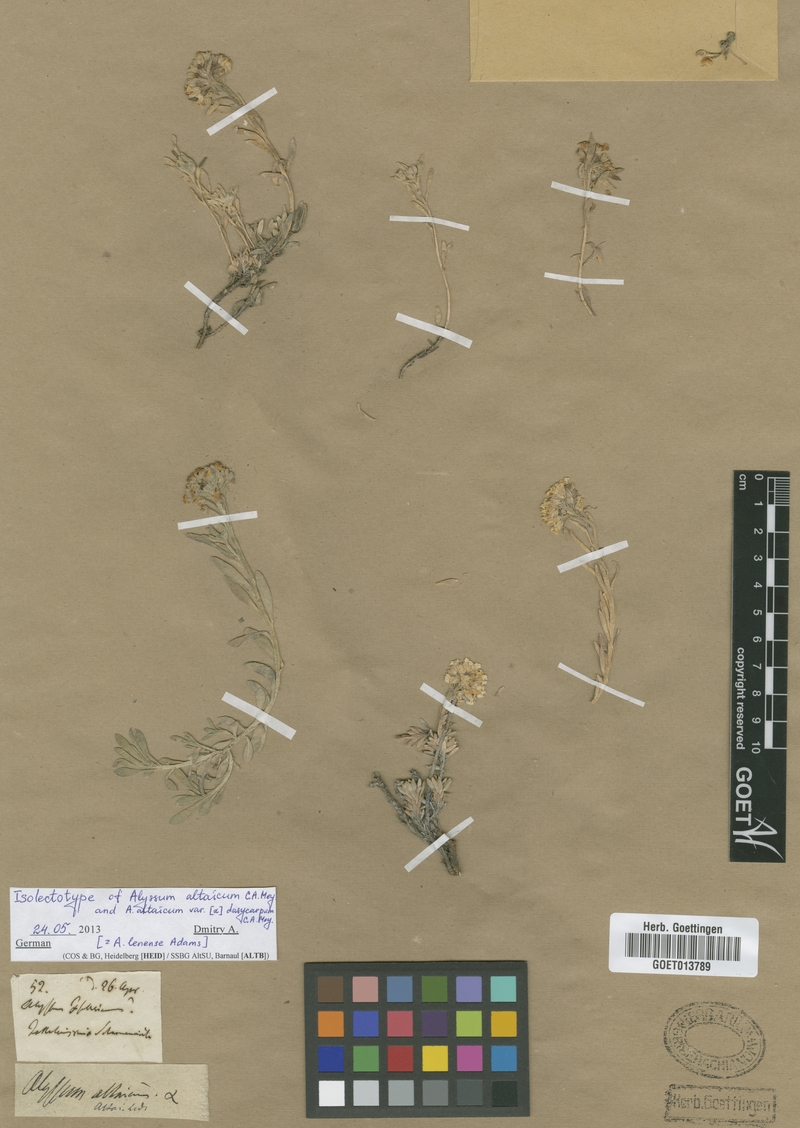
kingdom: Plantae
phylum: Tracheophyta
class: Magnoliopsida
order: Brassicales
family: Brassicaceae
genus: Alyssum
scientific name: Alyssum lenense
